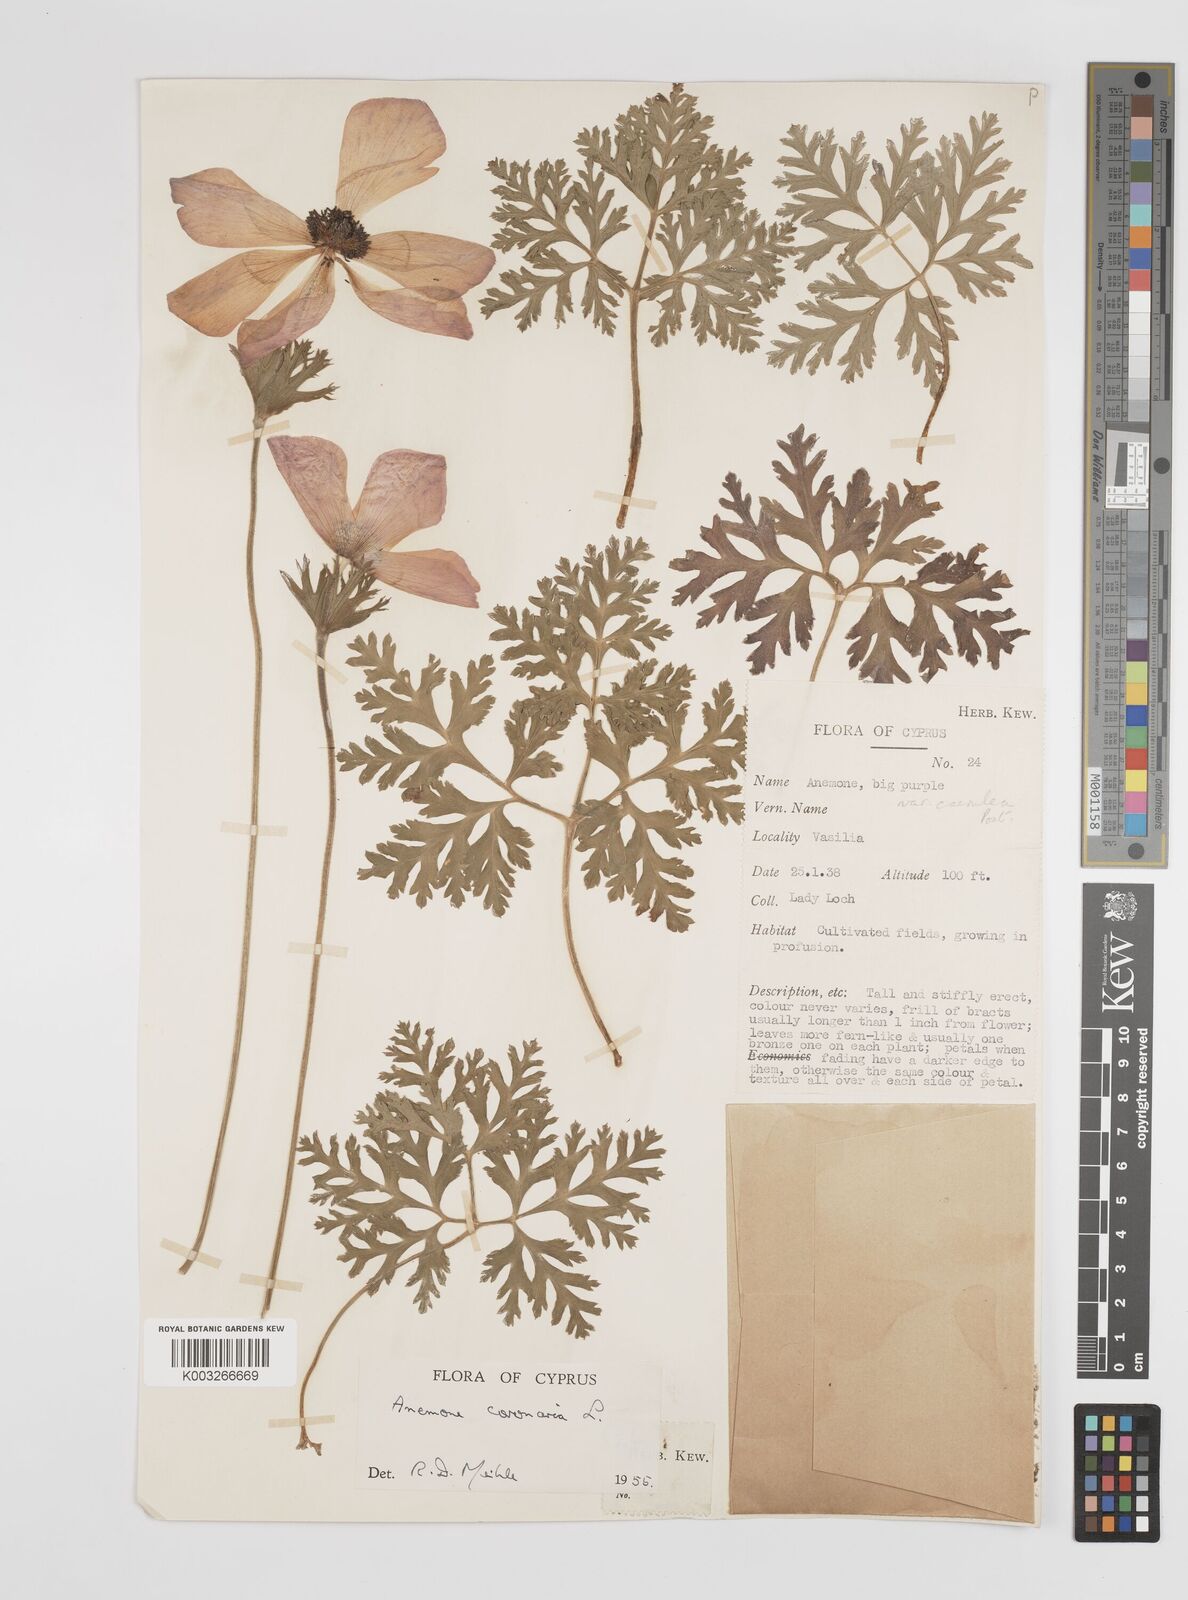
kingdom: Plantae
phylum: Tracheophyta
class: Magnoliopsida
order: Ranunculales
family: Ranunculaceae
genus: Anemone
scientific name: Anemone coronaria
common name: Poppy anemone
